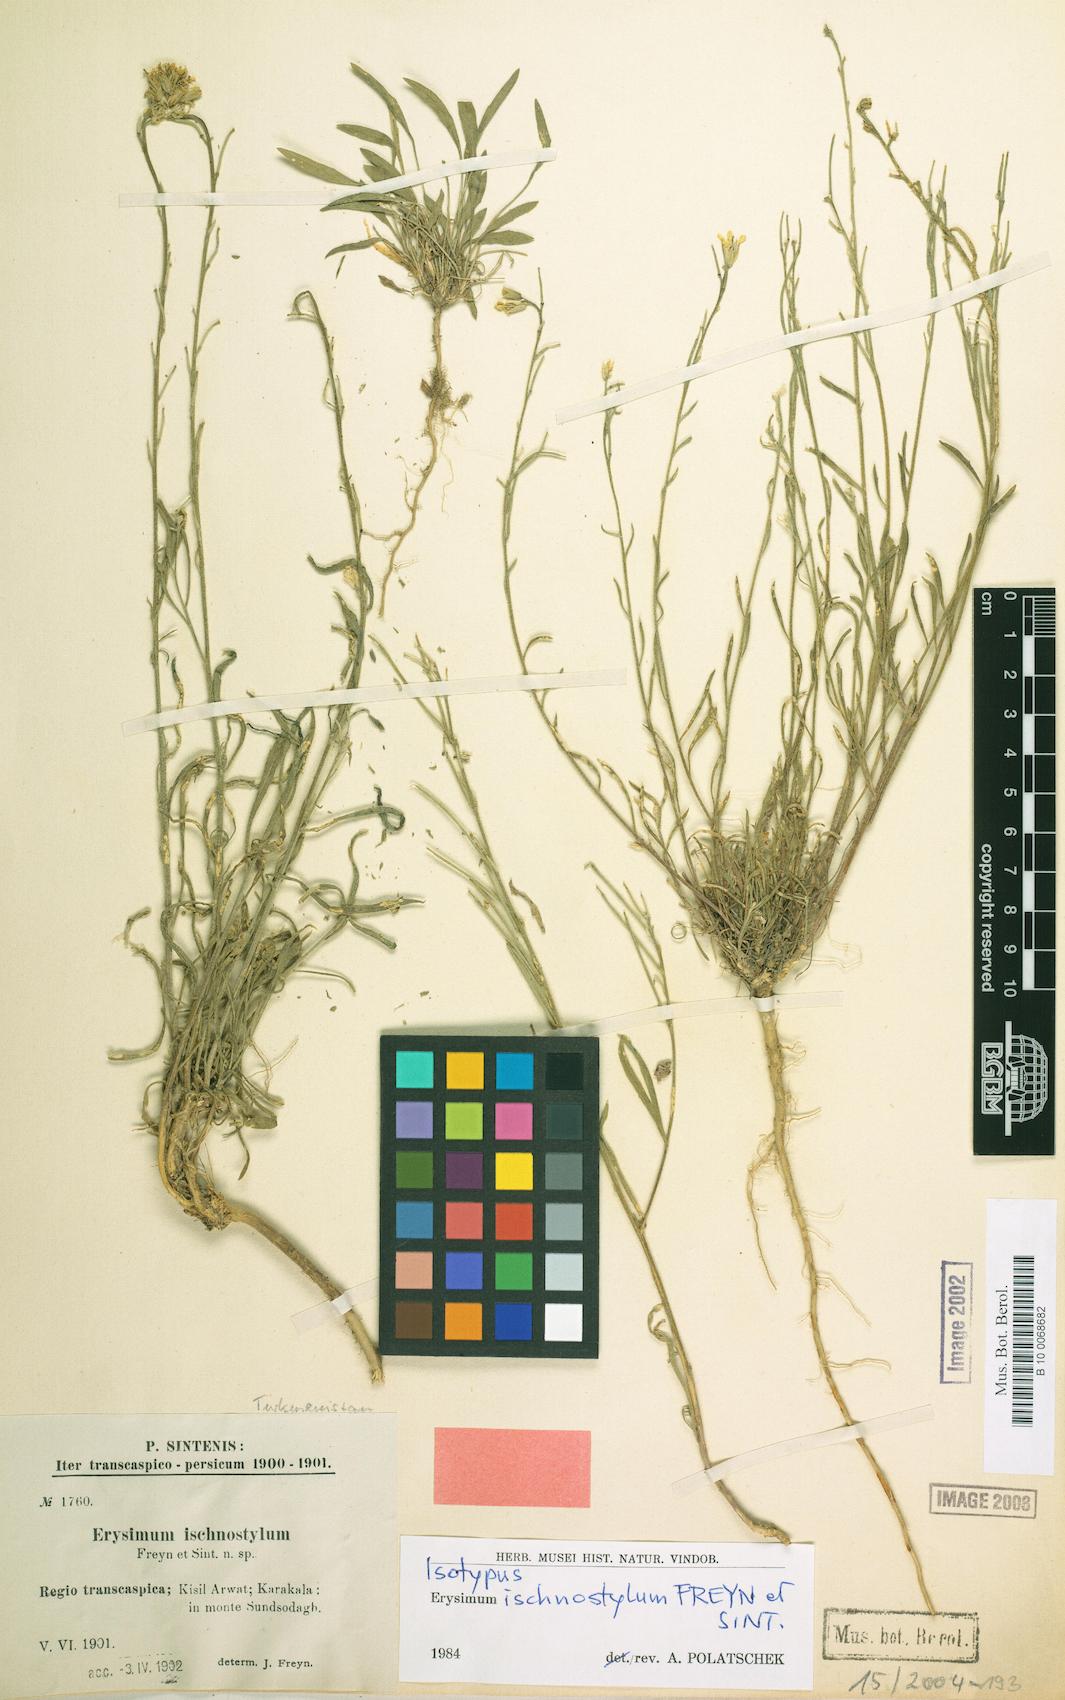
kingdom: Plantae
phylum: Tracheophyta
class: Magnoliopsida
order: Brassicales
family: Brassicaceae
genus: Erysimum
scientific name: Erysimum ischnostylum
